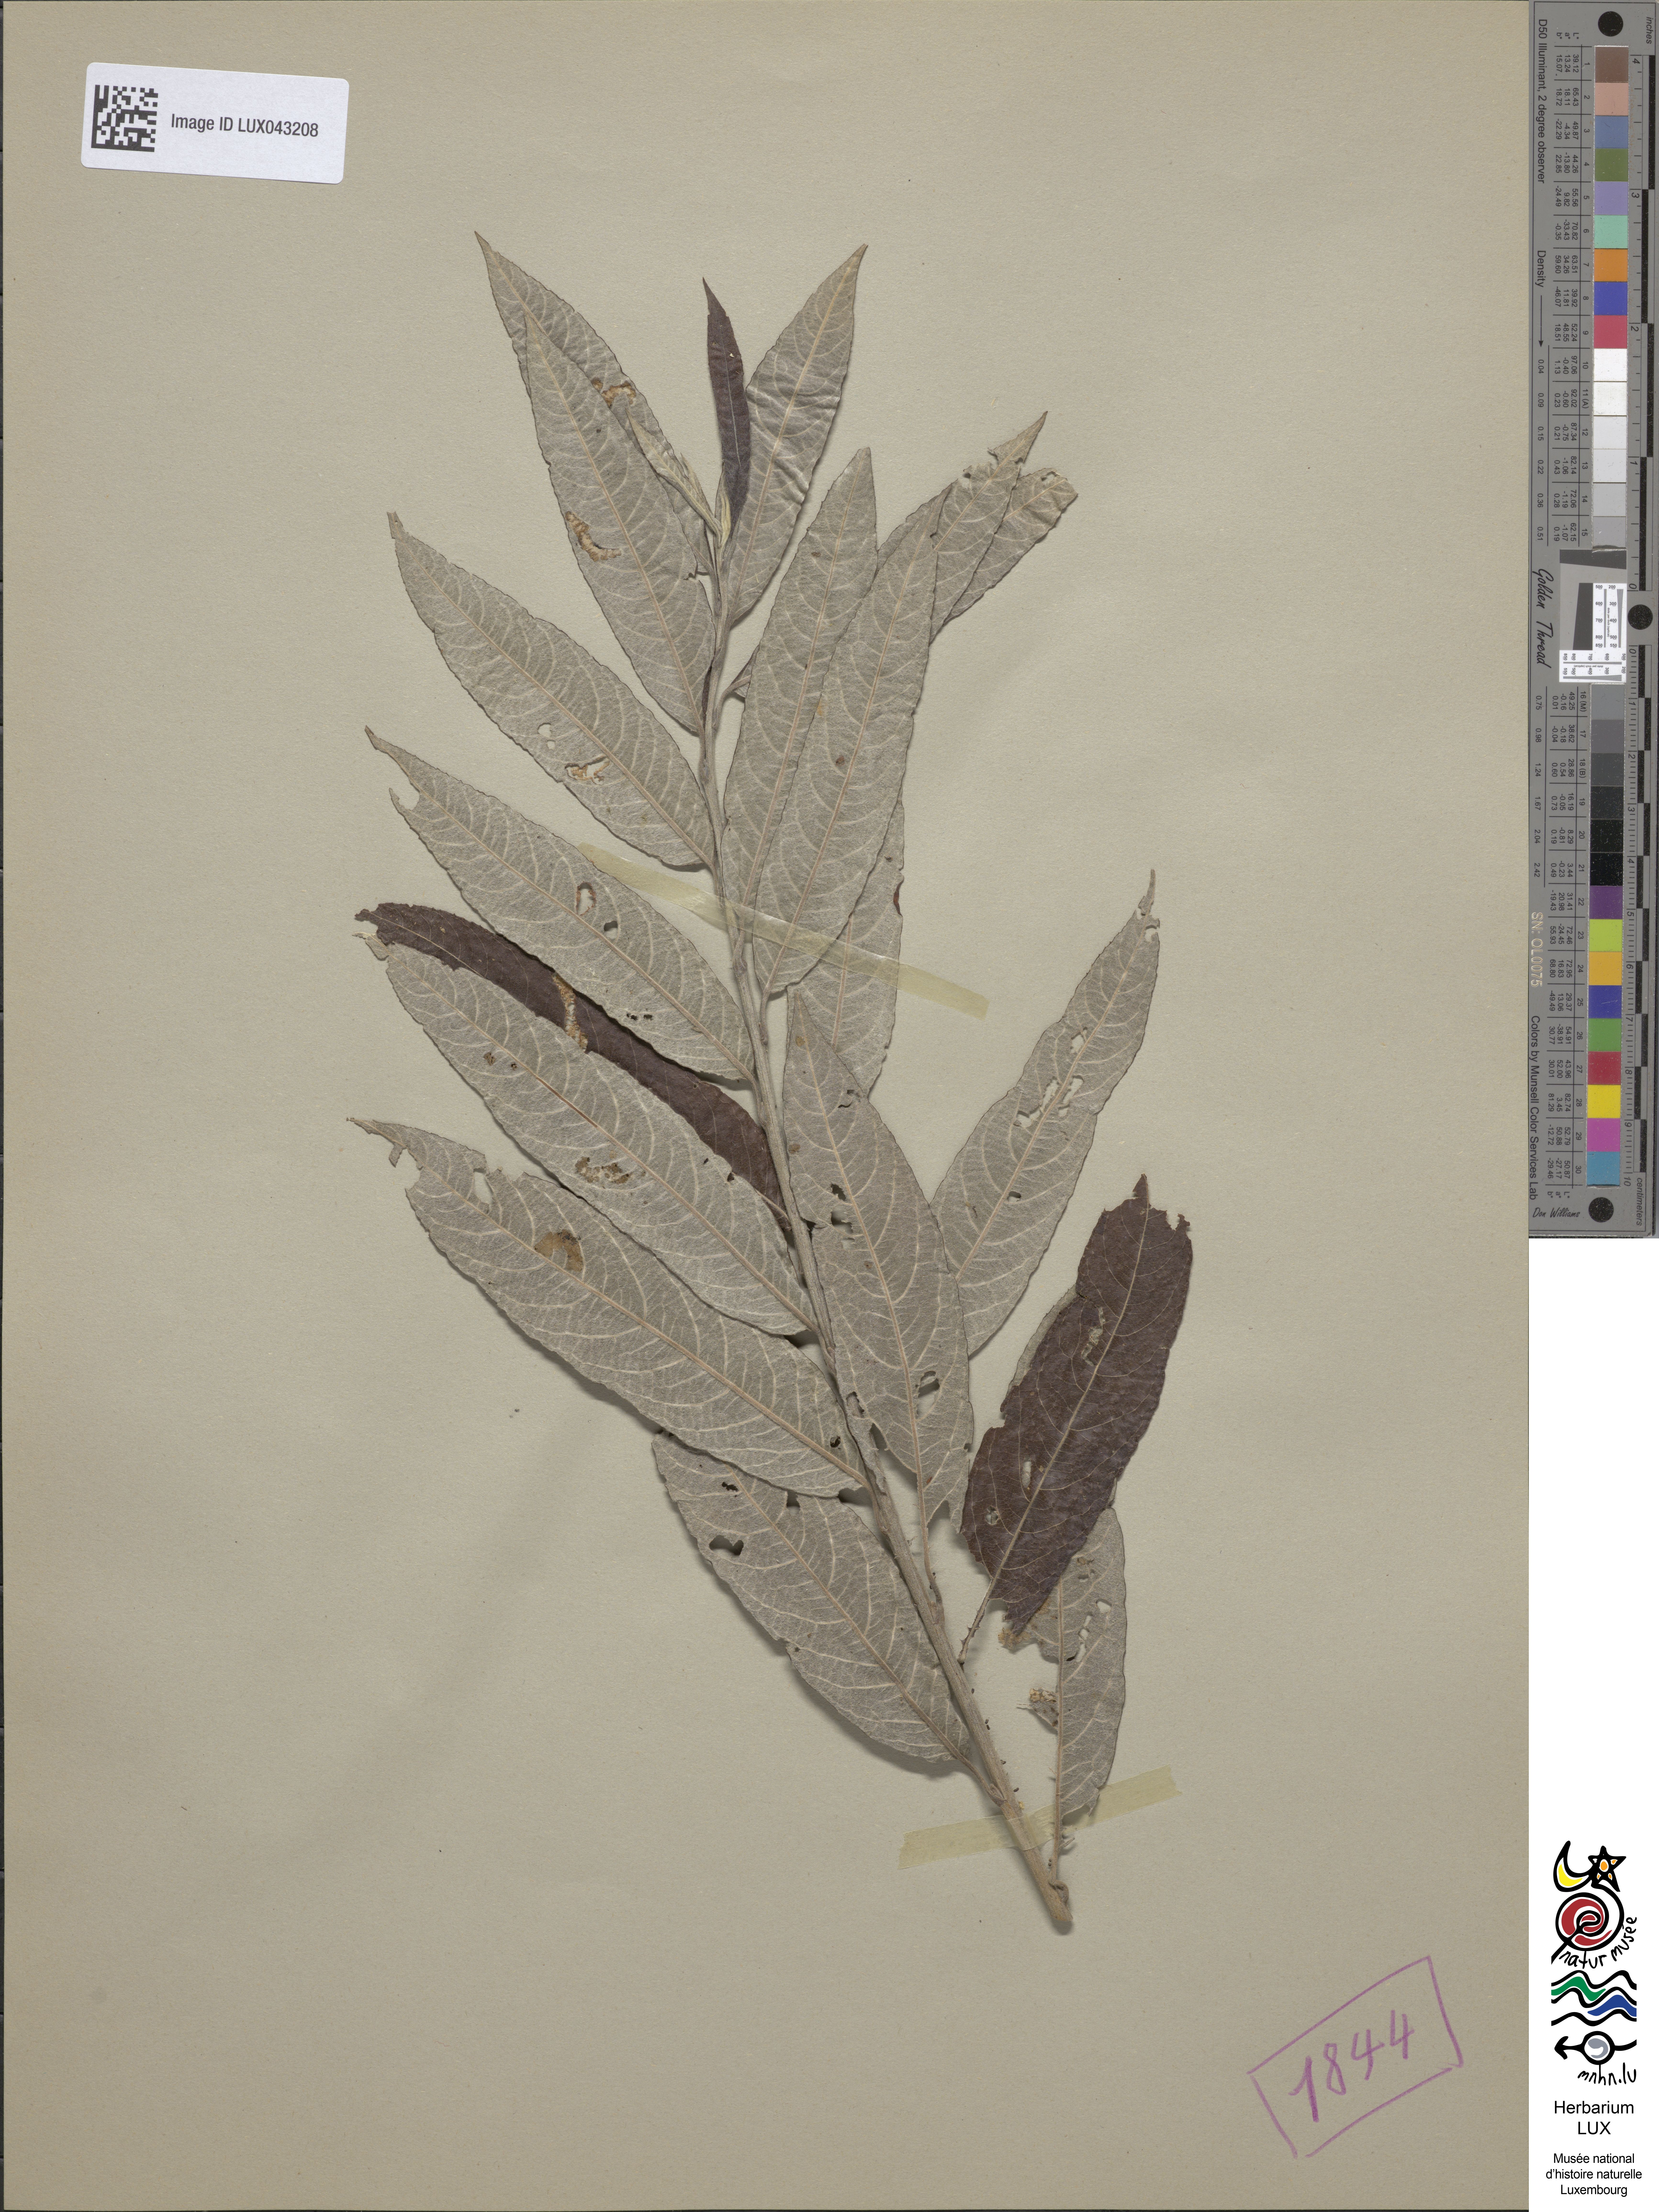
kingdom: Plantae
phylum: Tracheophyta
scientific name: Tracheophyta
